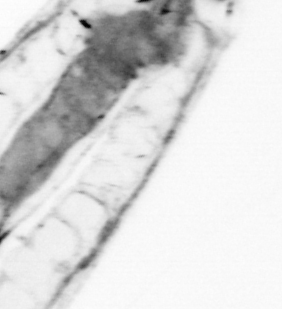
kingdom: Animalia
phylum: Chaetognatha
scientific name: Chaetognatha
